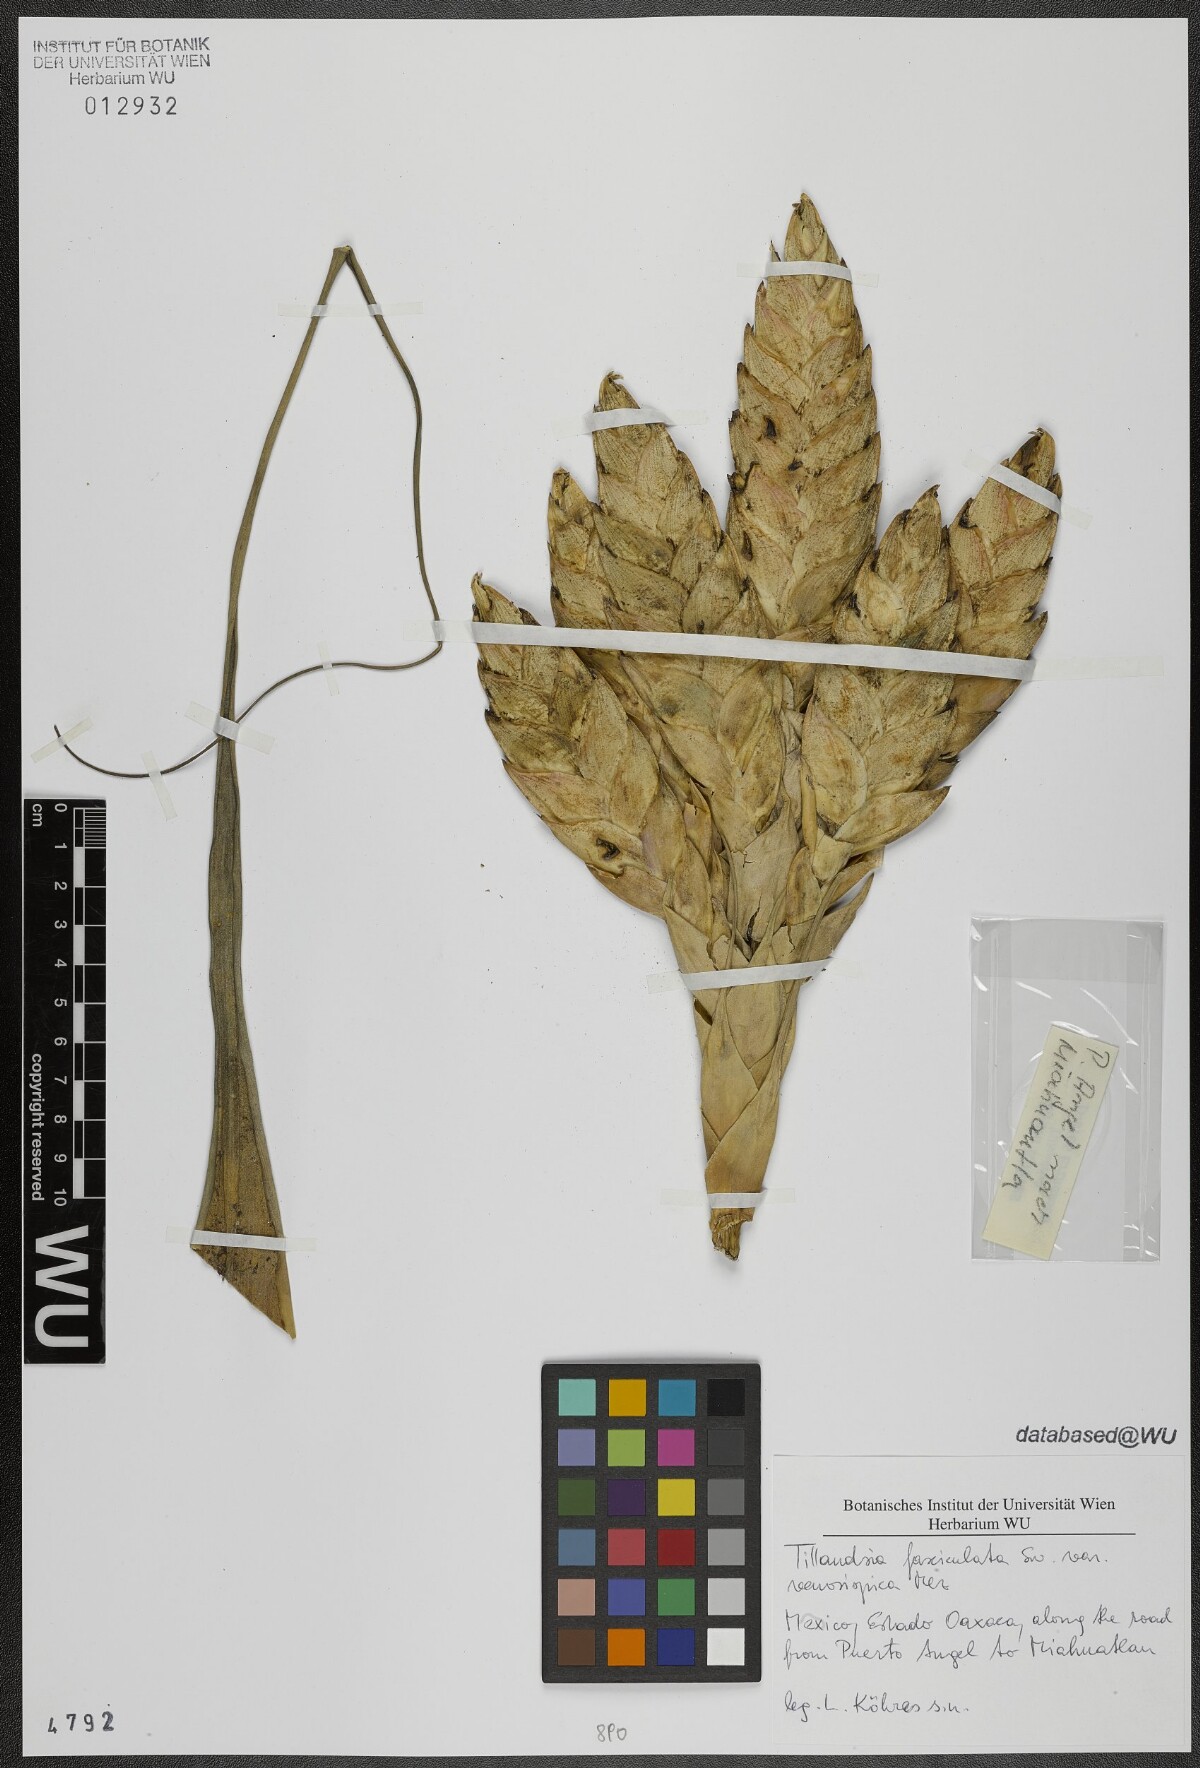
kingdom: Plantae
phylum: Tracheophyta
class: Liliopsida
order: Poales
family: Bromeliaceae
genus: Tillandsia
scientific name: Tillandsia compressa
